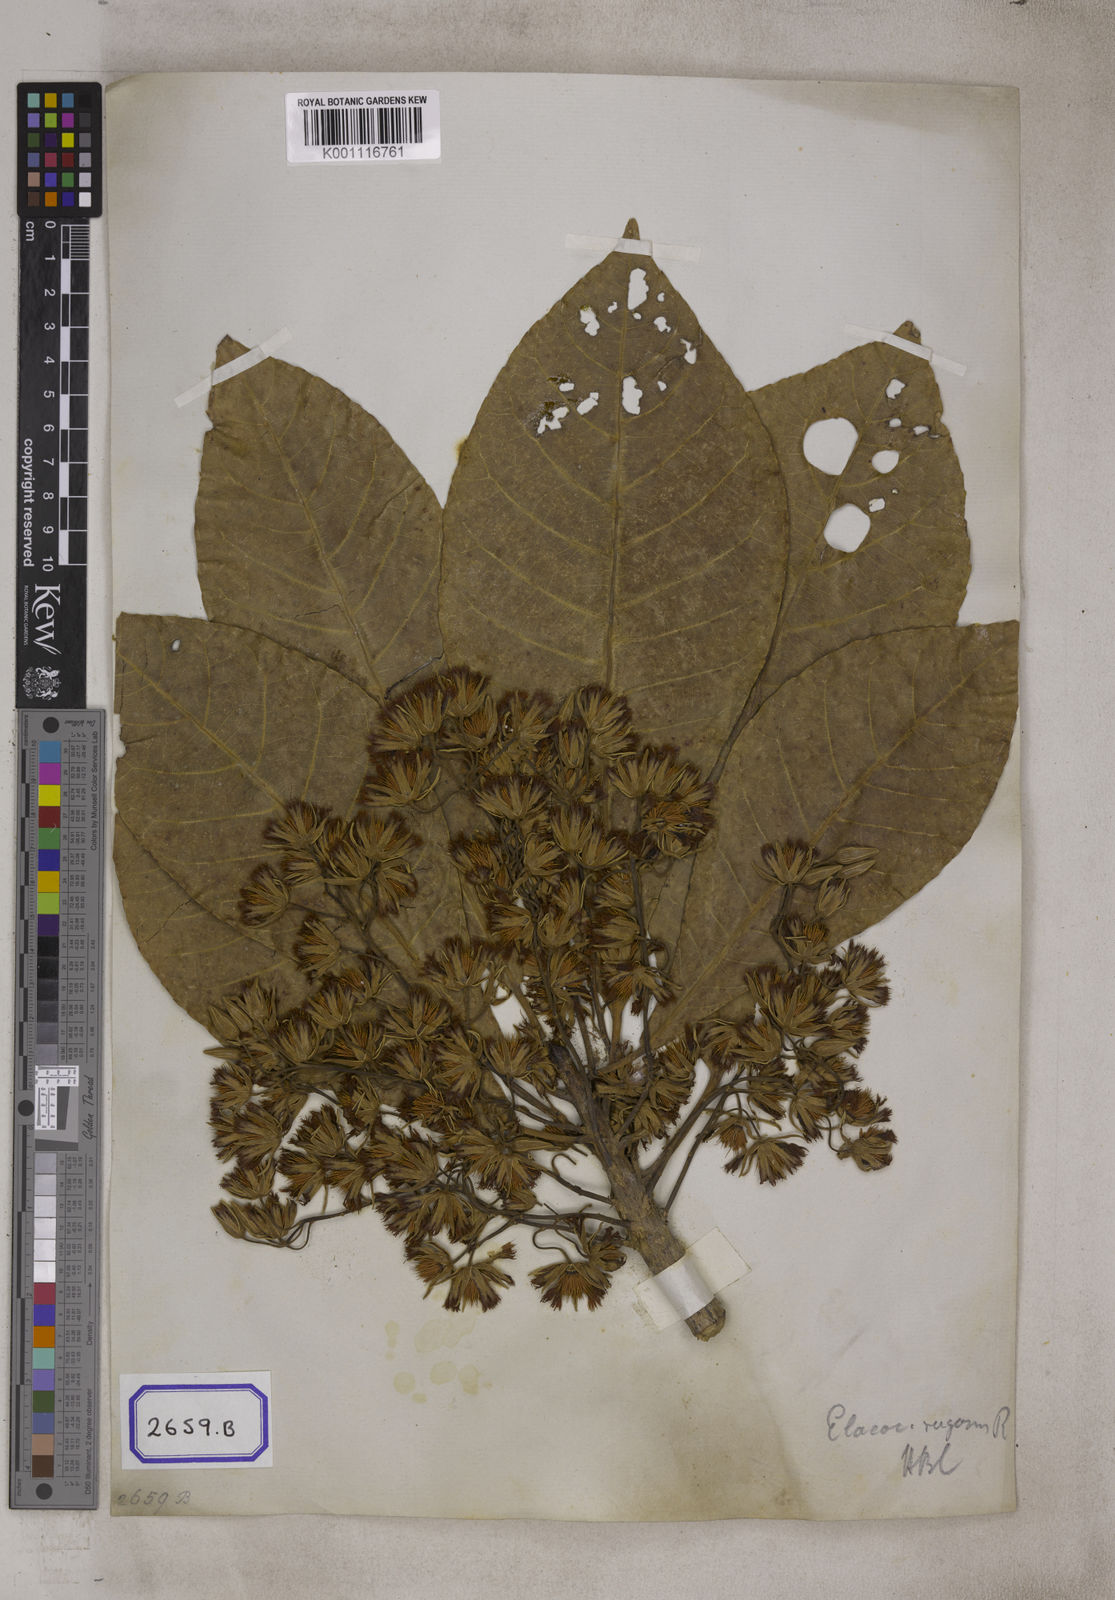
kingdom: Plantae
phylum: Tracheophyta
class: Magnoliopsida
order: Oxalidales
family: Elaeocarpaceae
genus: Elaeocarpus
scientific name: Elaeocarpus
